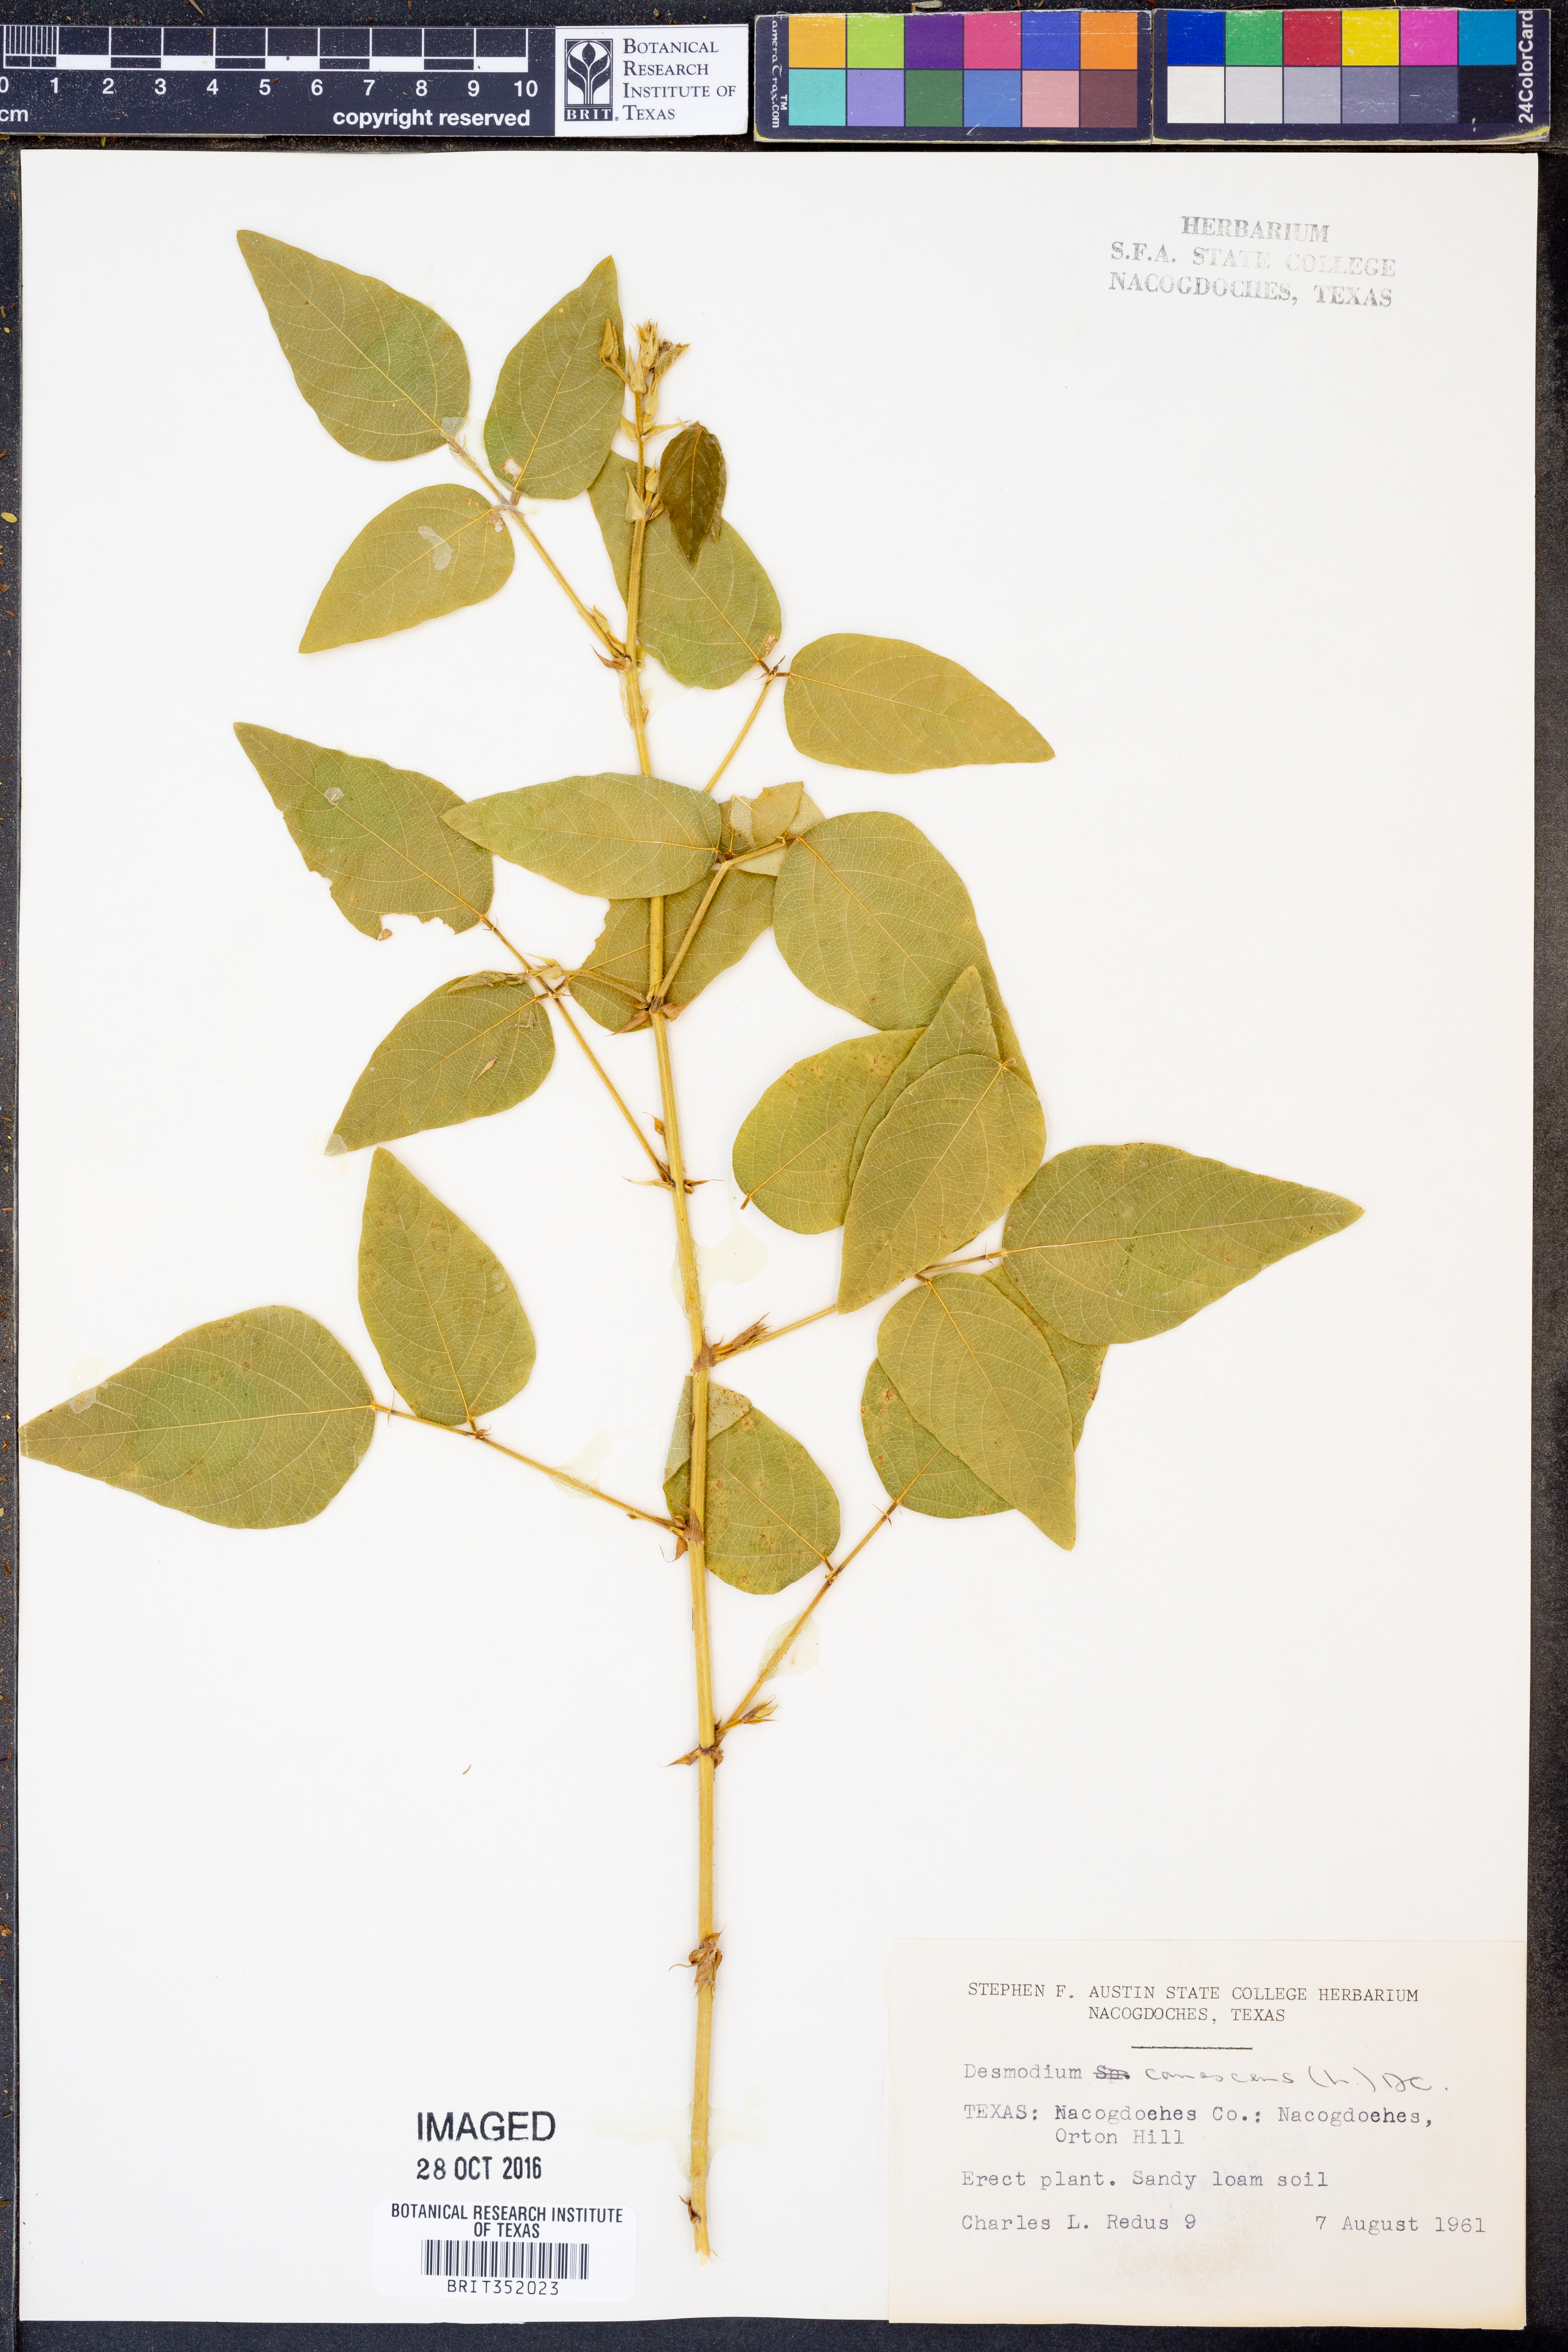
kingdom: Plantae
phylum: Tracheophyta
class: Magnoliopsida
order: Fabales
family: Fabaceae
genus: Desmodium
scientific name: Desmodium canescens
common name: Hoary tick-clover
